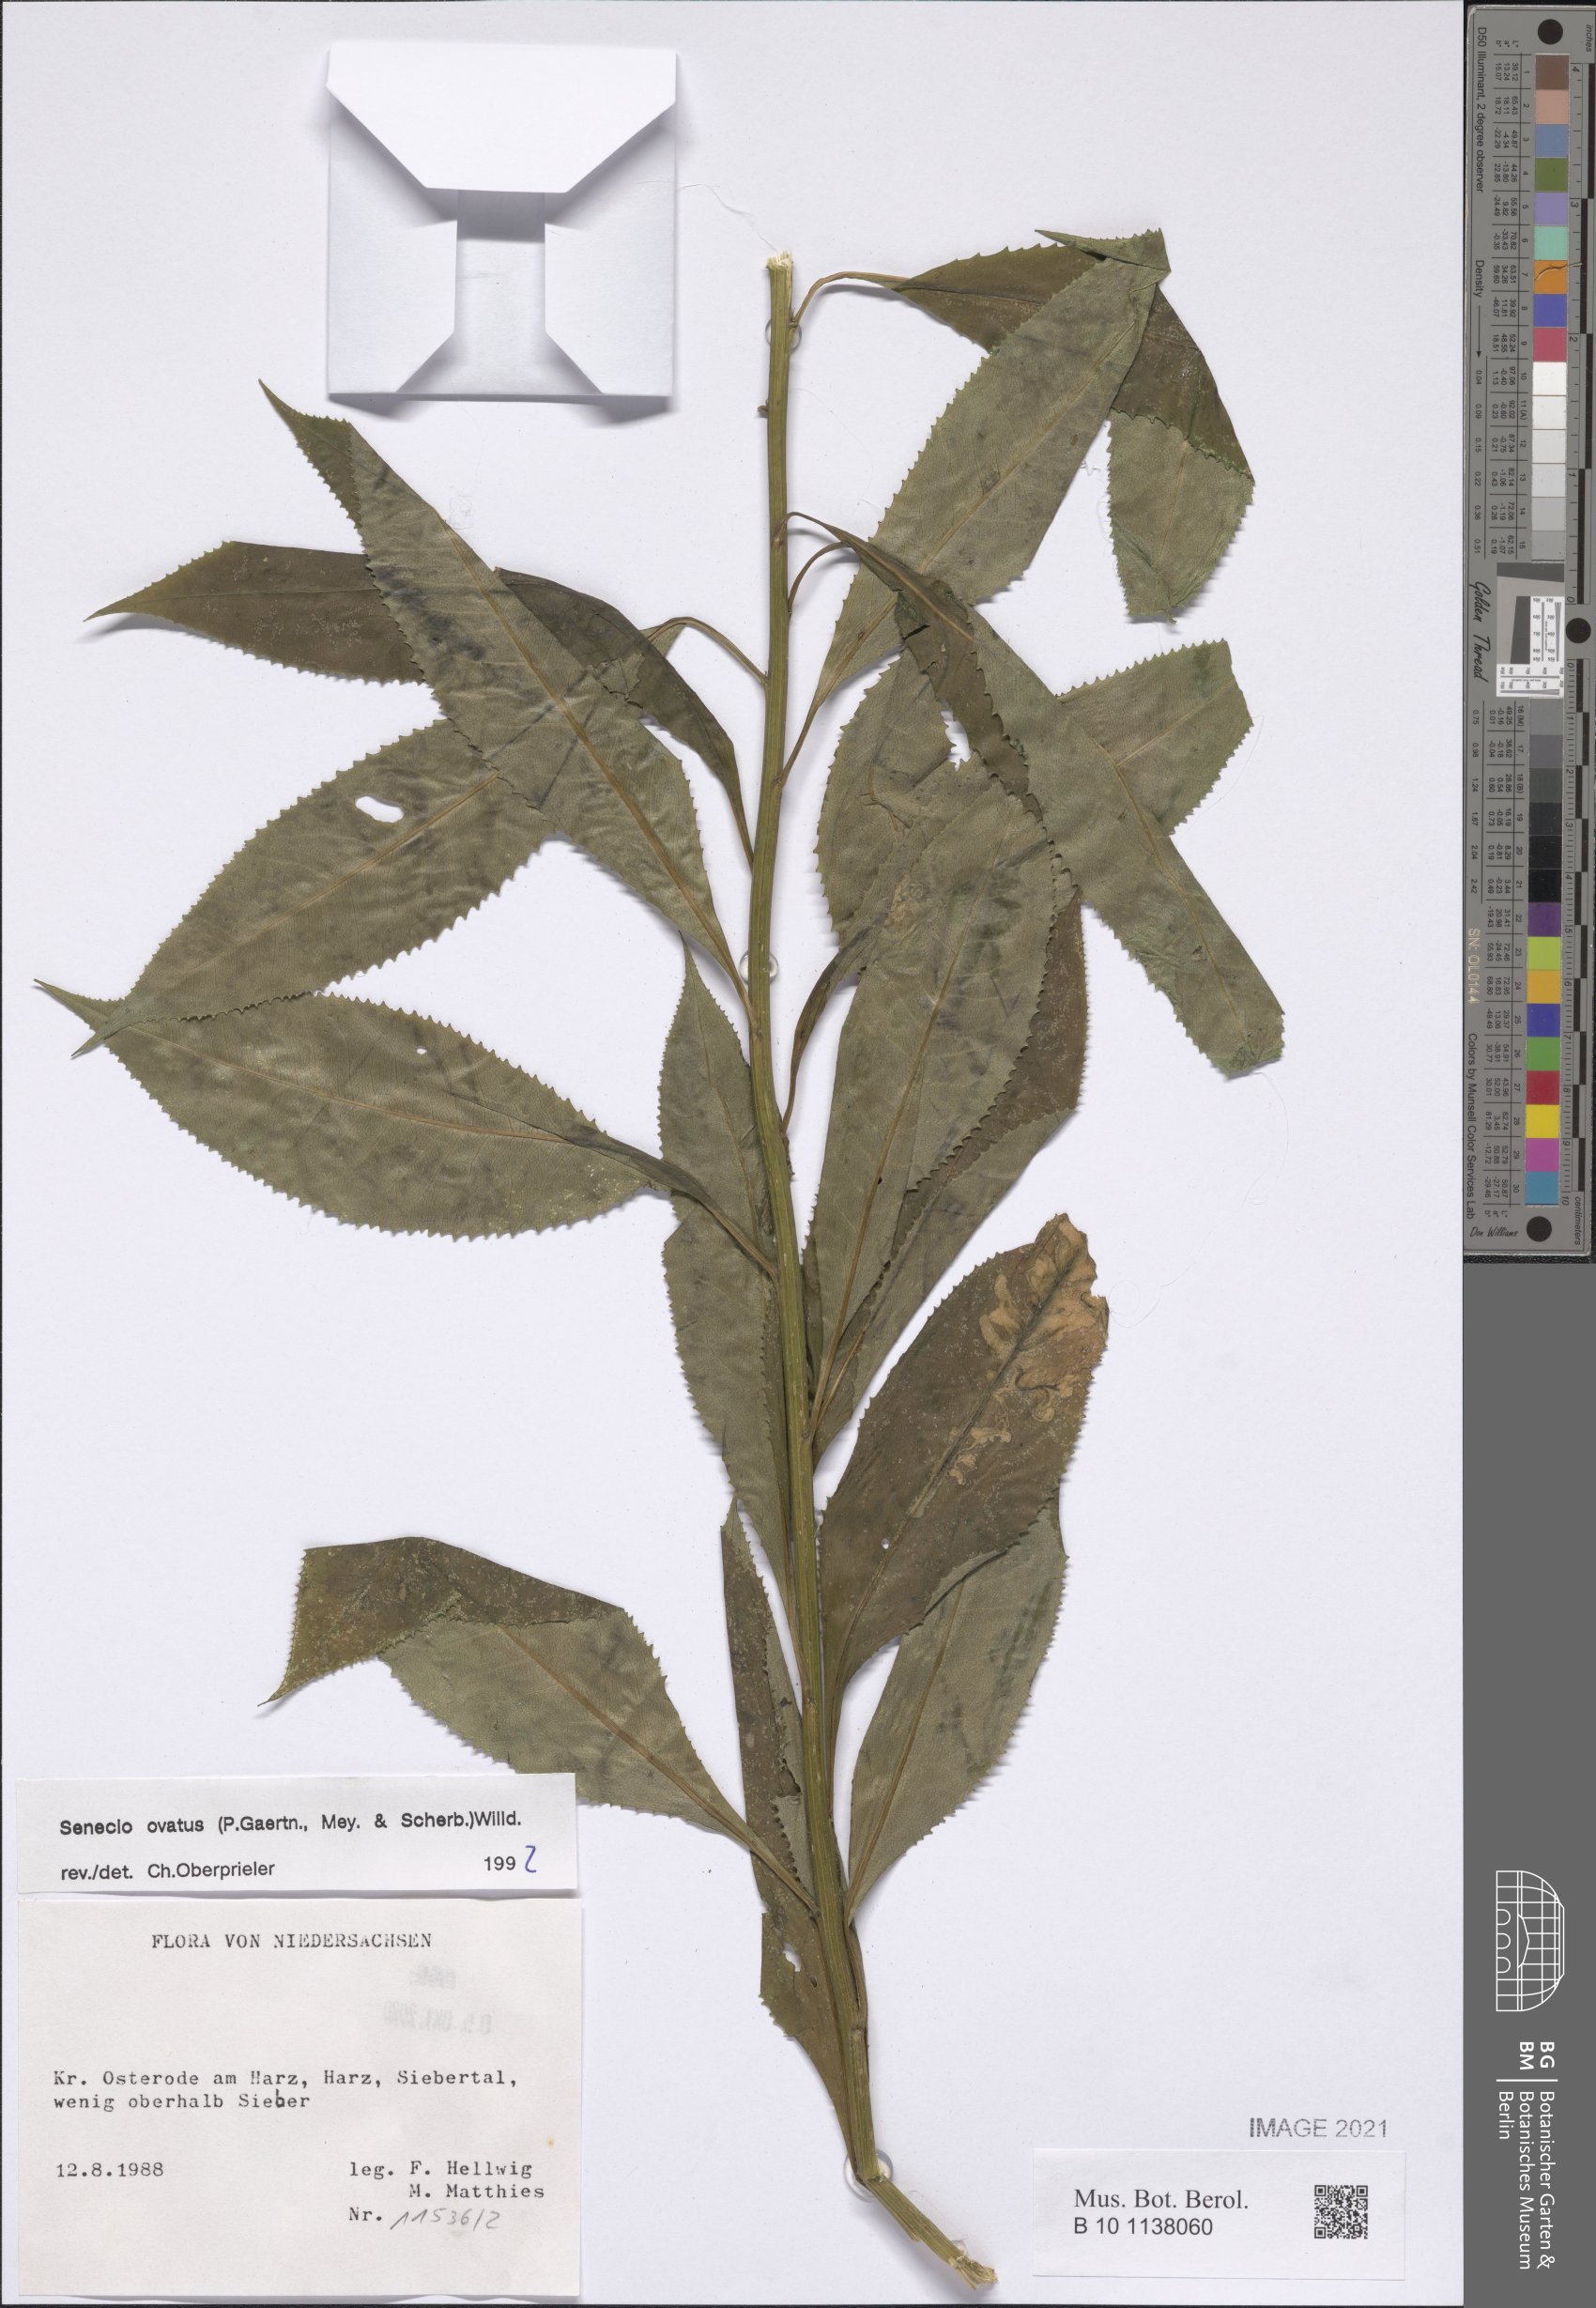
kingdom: Plantae
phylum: Tracheophyta
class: Magnoliopsida
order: Asterales
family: Asteraceae
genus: Senecio
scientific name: Senecio ovatus
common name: Wood ragwort
